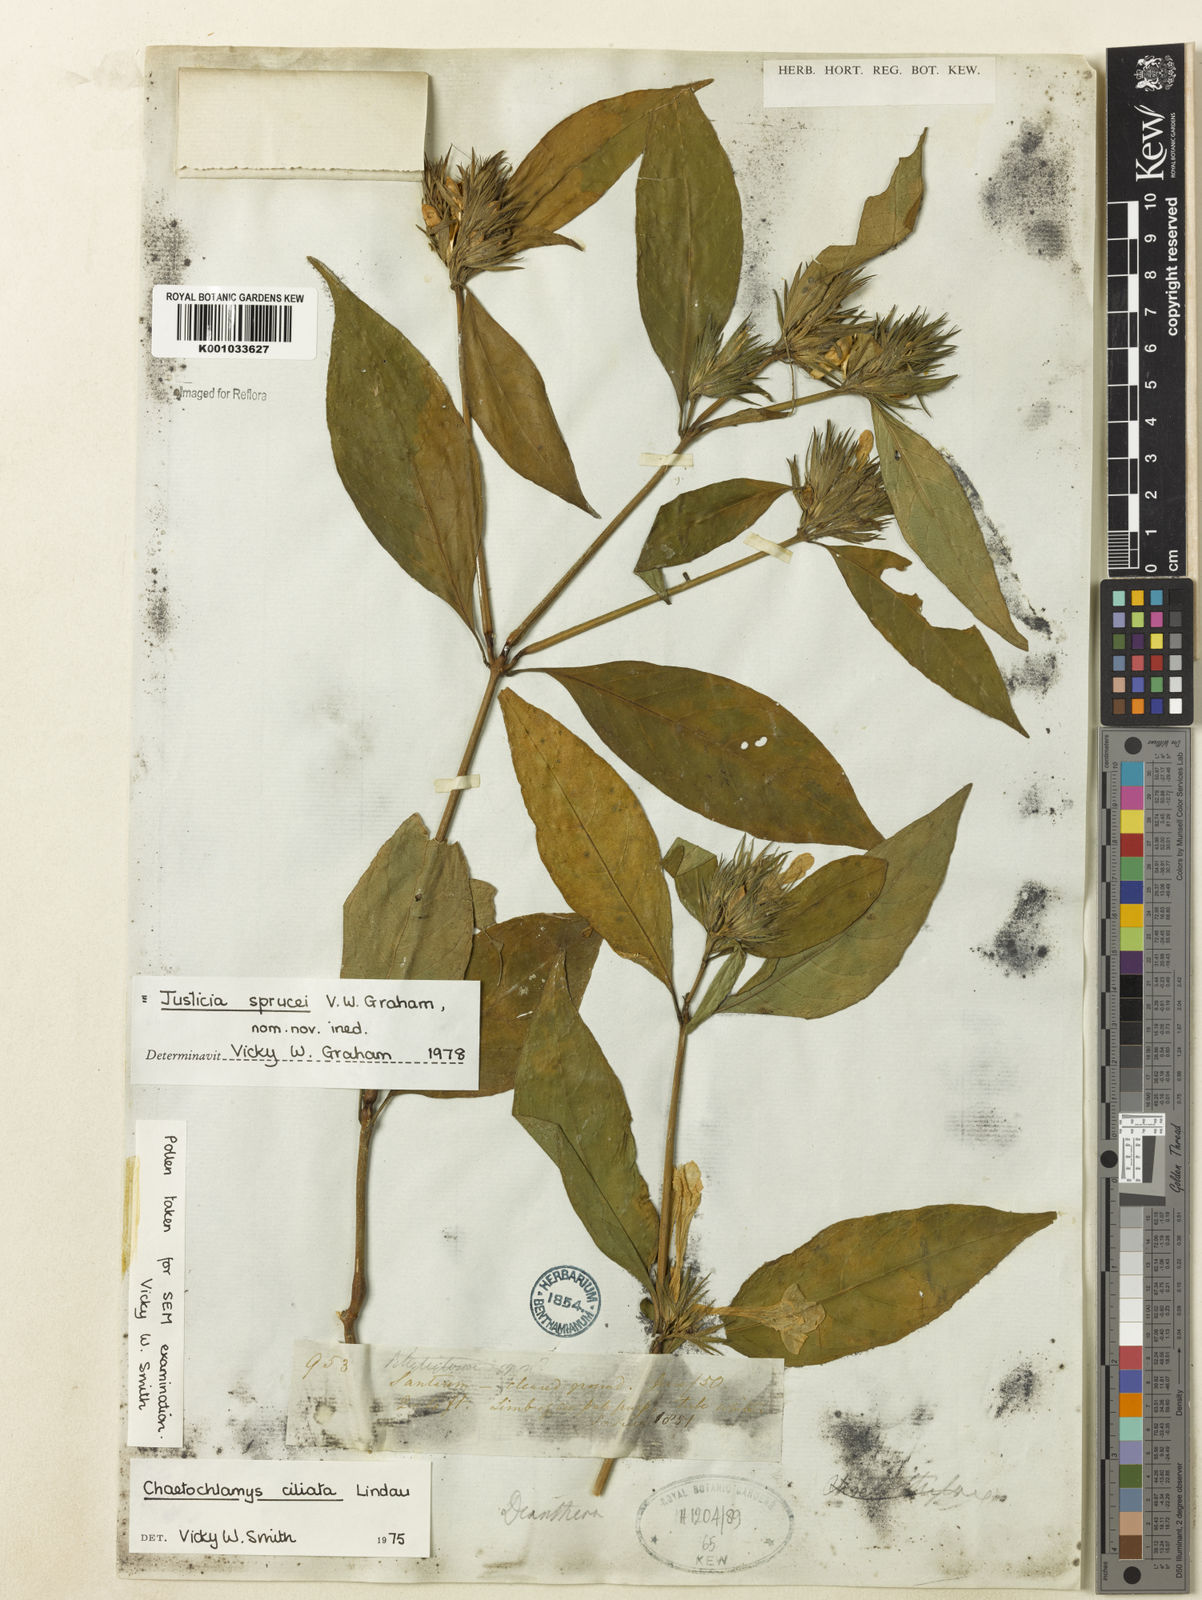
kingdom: Plantae
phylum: Tracheophyta
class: Magnoliopsida
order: Lamiales
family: Acanthaceae
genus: Justicia
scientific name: Justicia sprucei
